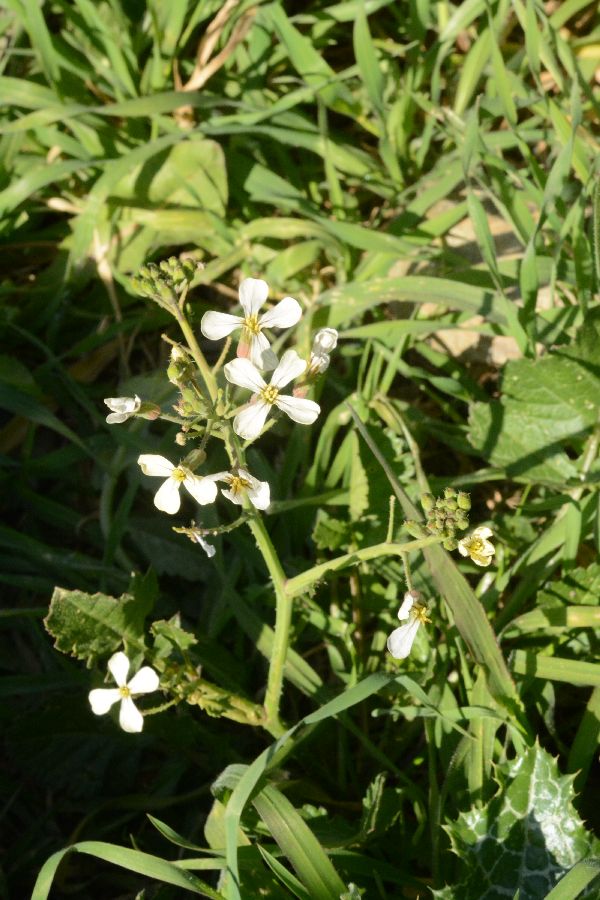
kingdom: Plantae
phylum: Tracheophyta
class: Magnoliopsida
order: Brassicales
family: Brassicaceae
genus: Eruca
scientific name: Eruca vesicaria
